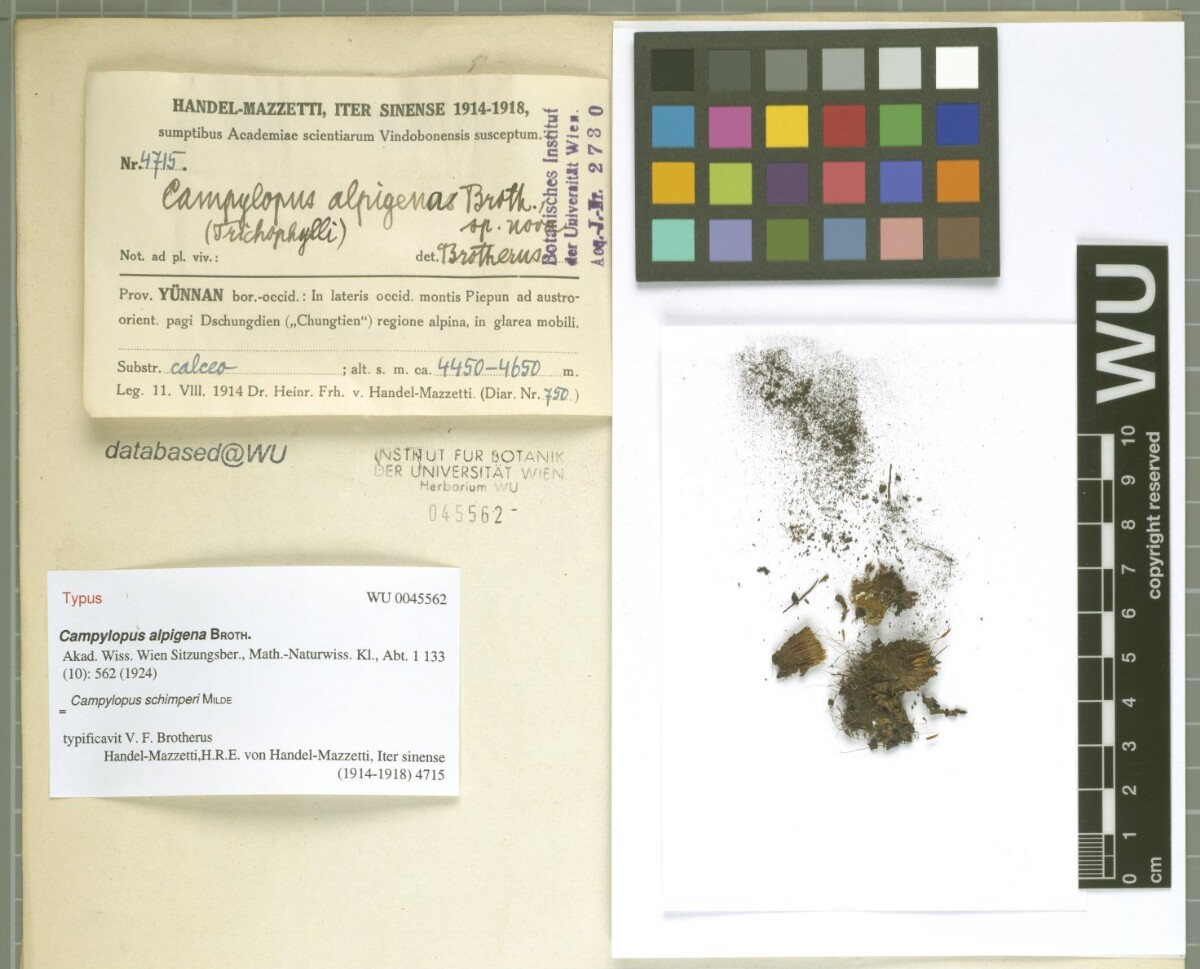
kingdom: Plantae
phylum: Bryophyta
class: Bryopsida
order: Dicranales
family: Leucobryaceae
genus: Campylopus
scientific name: Campylopus schimperi
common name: Schimper's swan-neck moss
